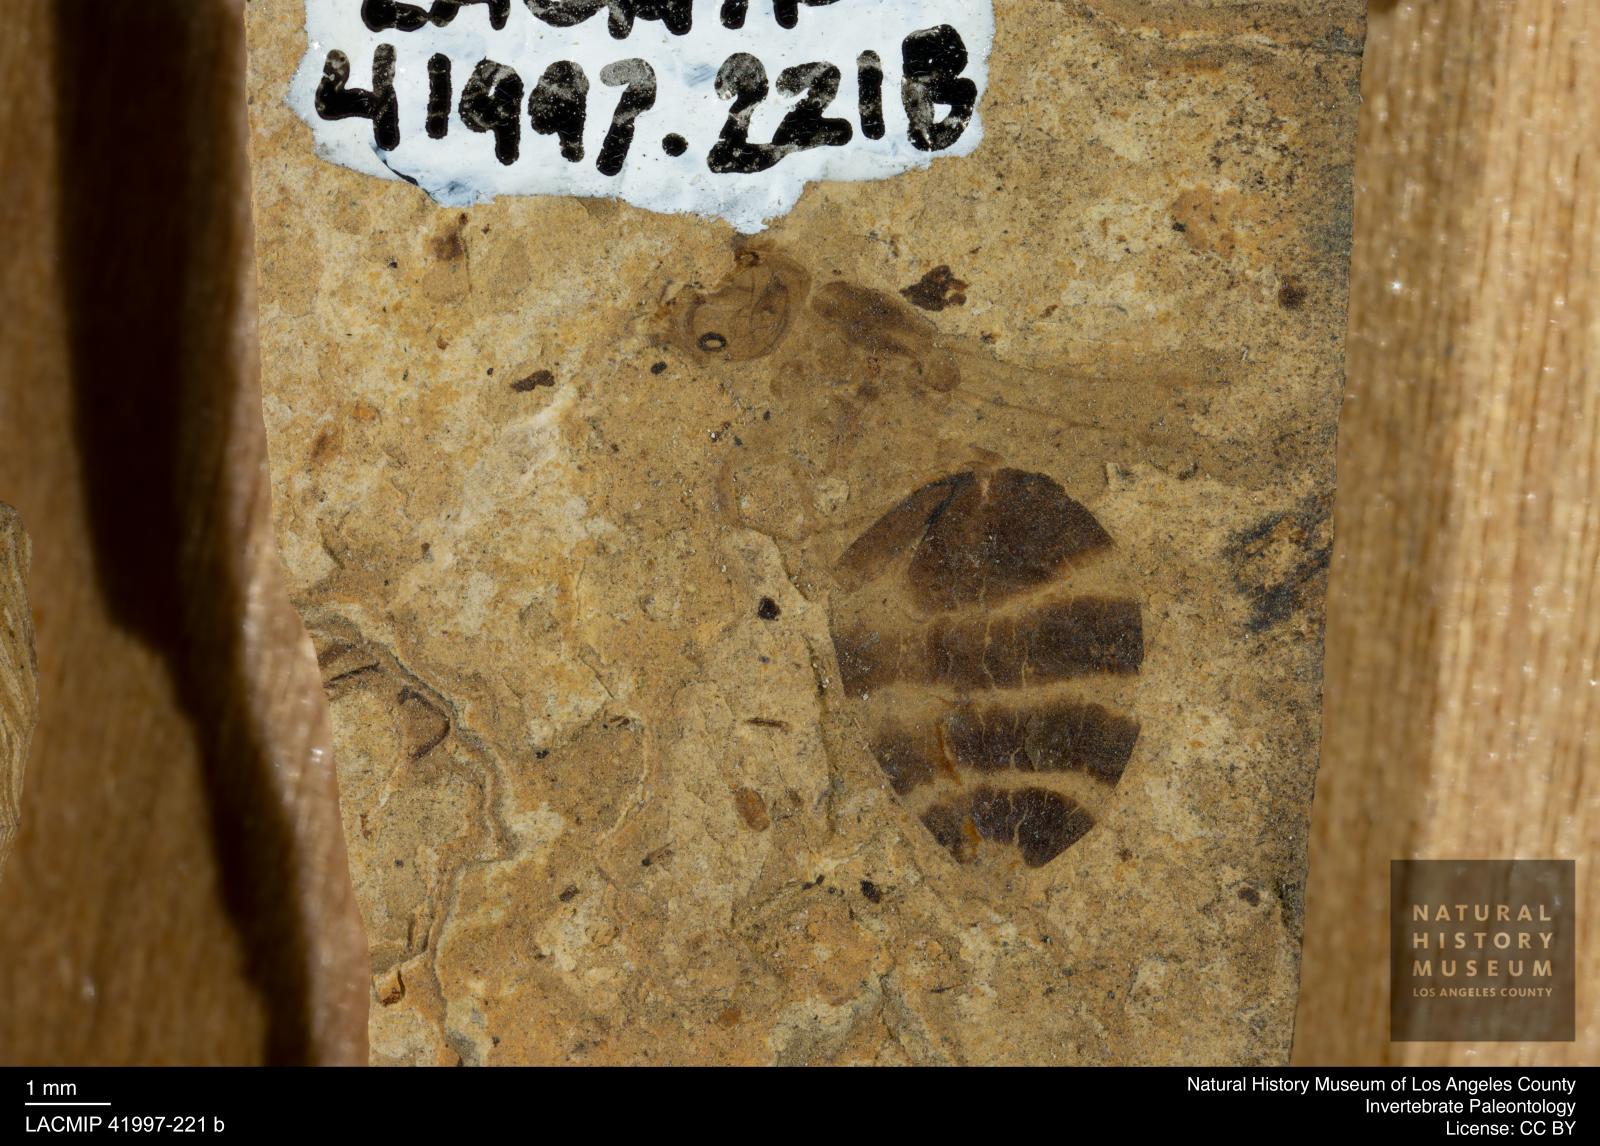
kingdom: Animalia
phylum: Arthropoda
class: Insecta
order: Hymenoptera
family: Formicidae
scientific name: Formicidae
